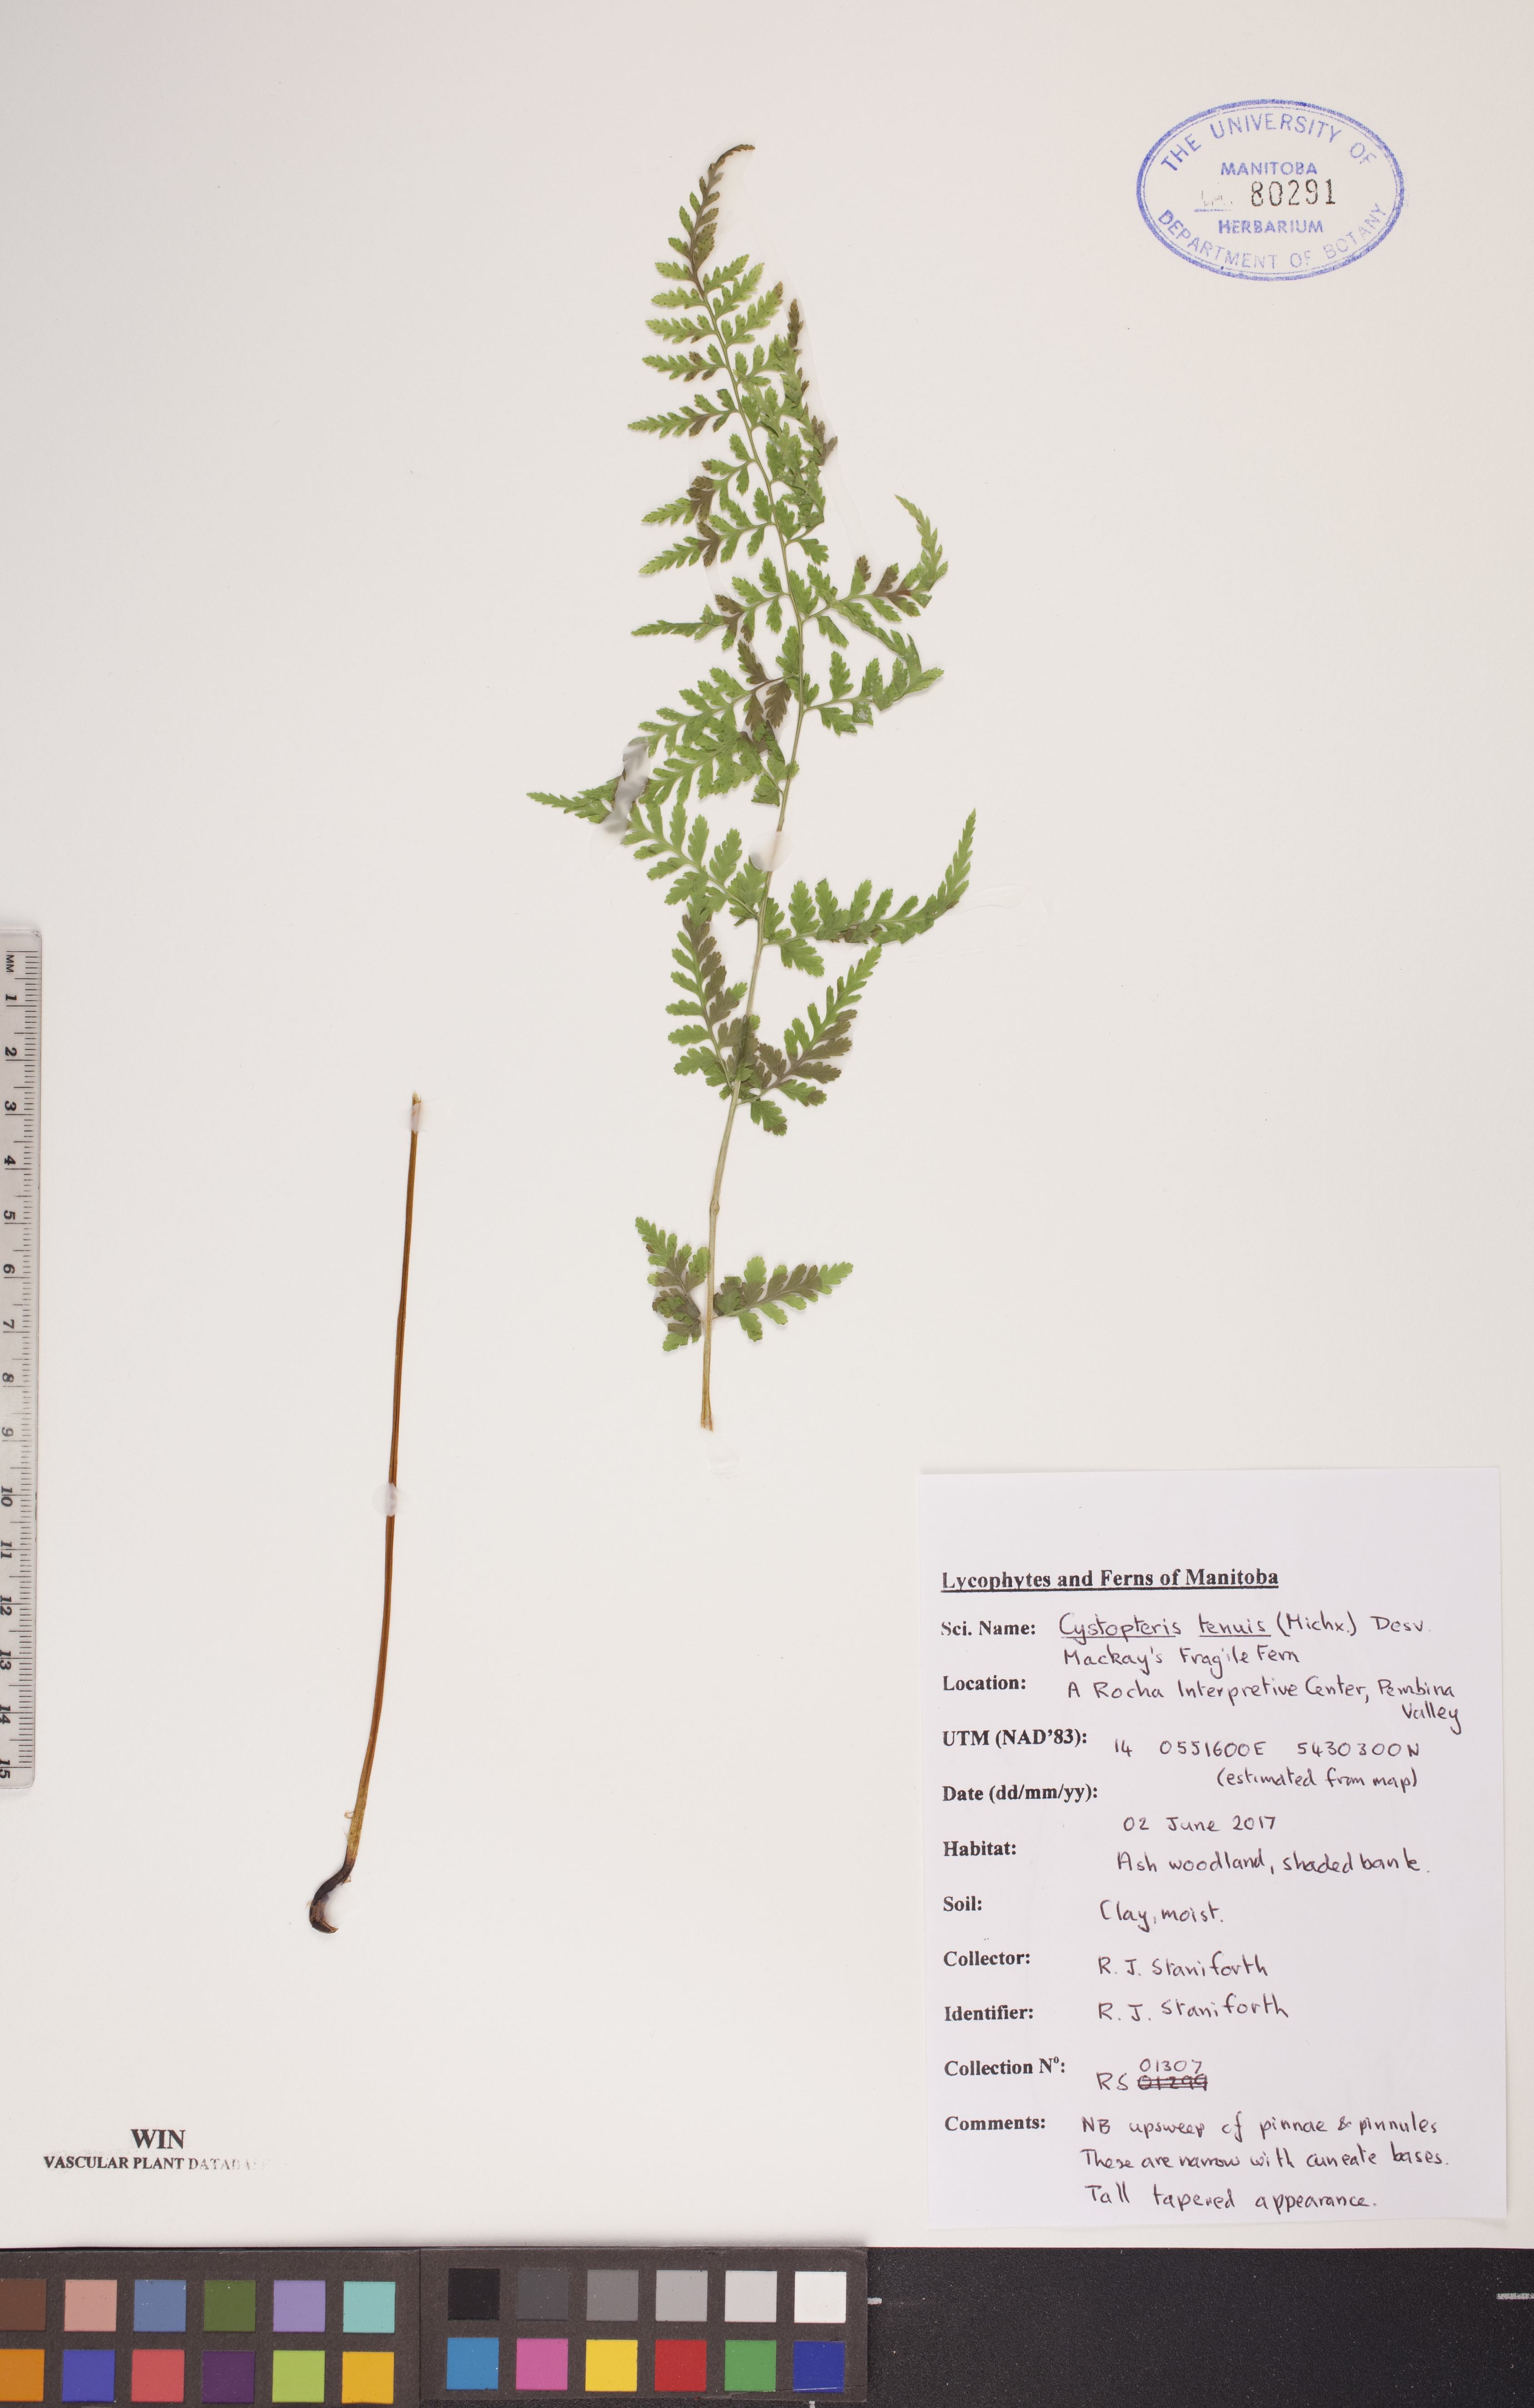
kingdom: Plantae
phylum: Tracheophyta
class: Polypodiopsida
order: Polypodiales
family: Cystopteridaceae
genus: Cystopteris
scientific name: Cystopteris tenuis
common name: Mackay's brittle fern
